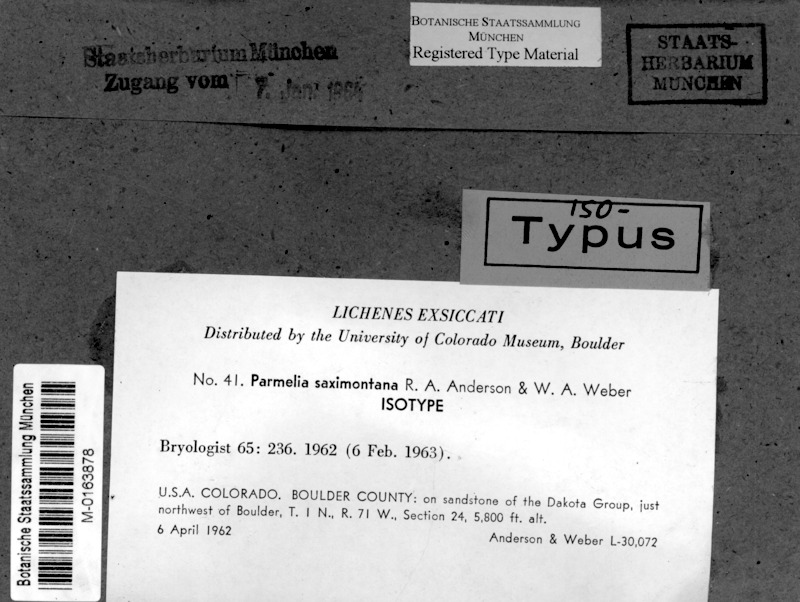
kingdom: Fungi
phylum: Ascomycota
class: Lecanoromycetes
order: Lecanorales
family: Parmeliaceae
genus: Montanelia
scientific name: Montanelia tominii
